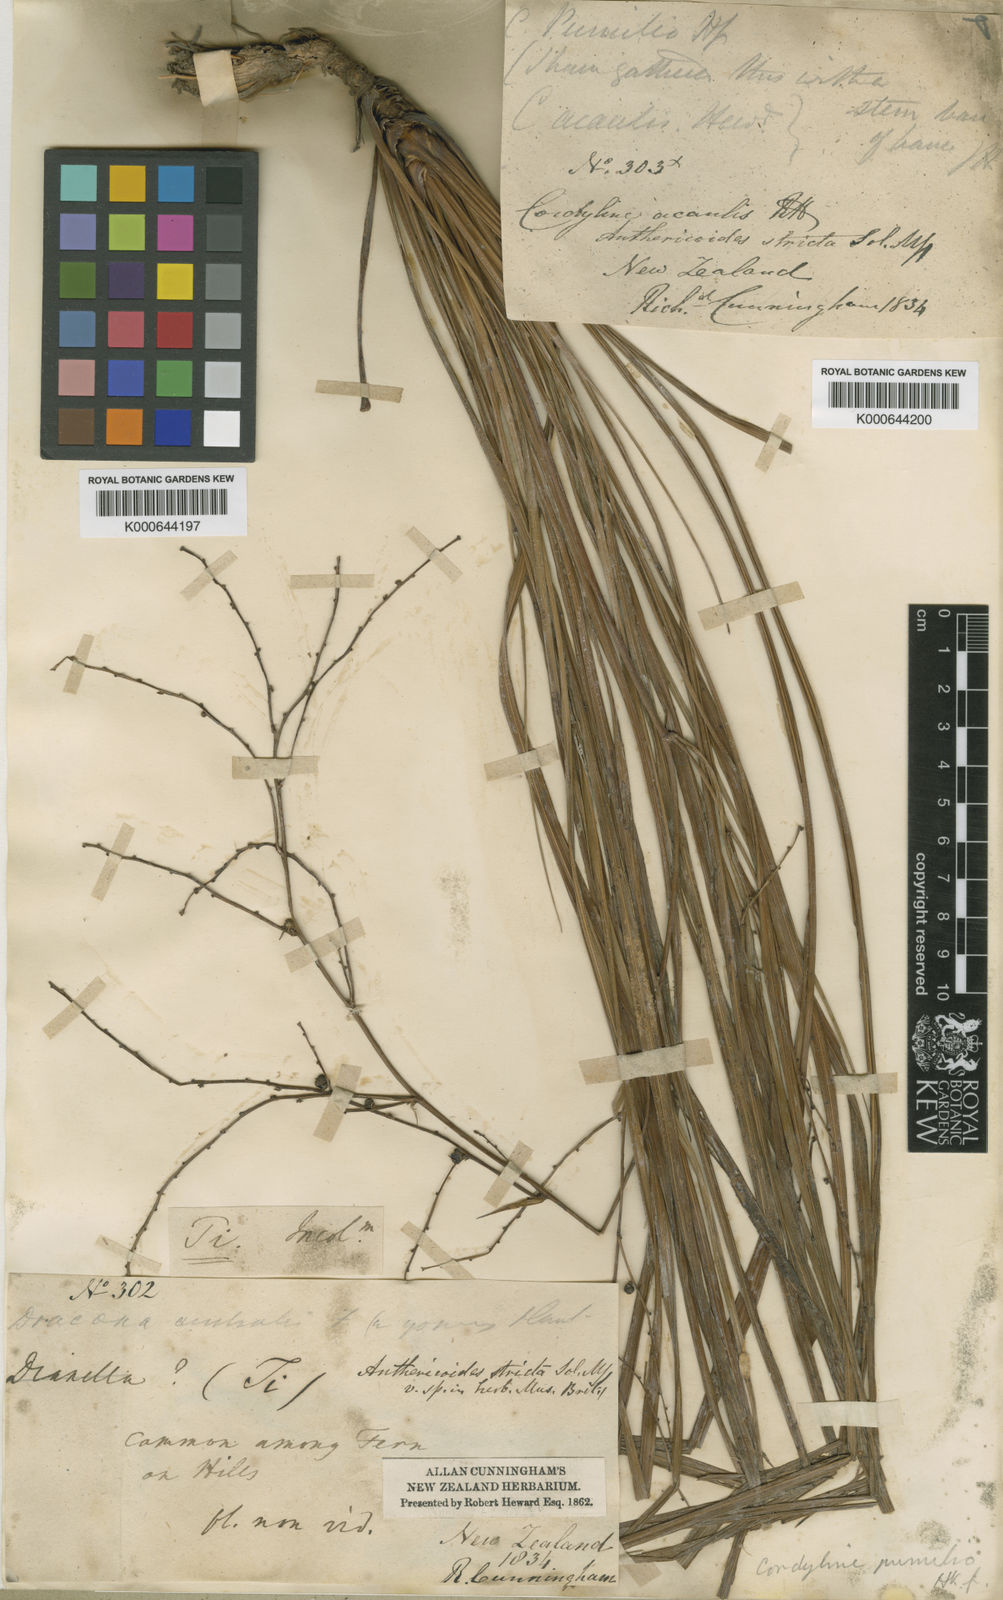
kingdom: Plantae
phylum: Tracheophyta
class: Liliopsida
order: Asparagales
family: Asparagaceae
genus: Cordyline
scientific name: Cordyline pumilio
